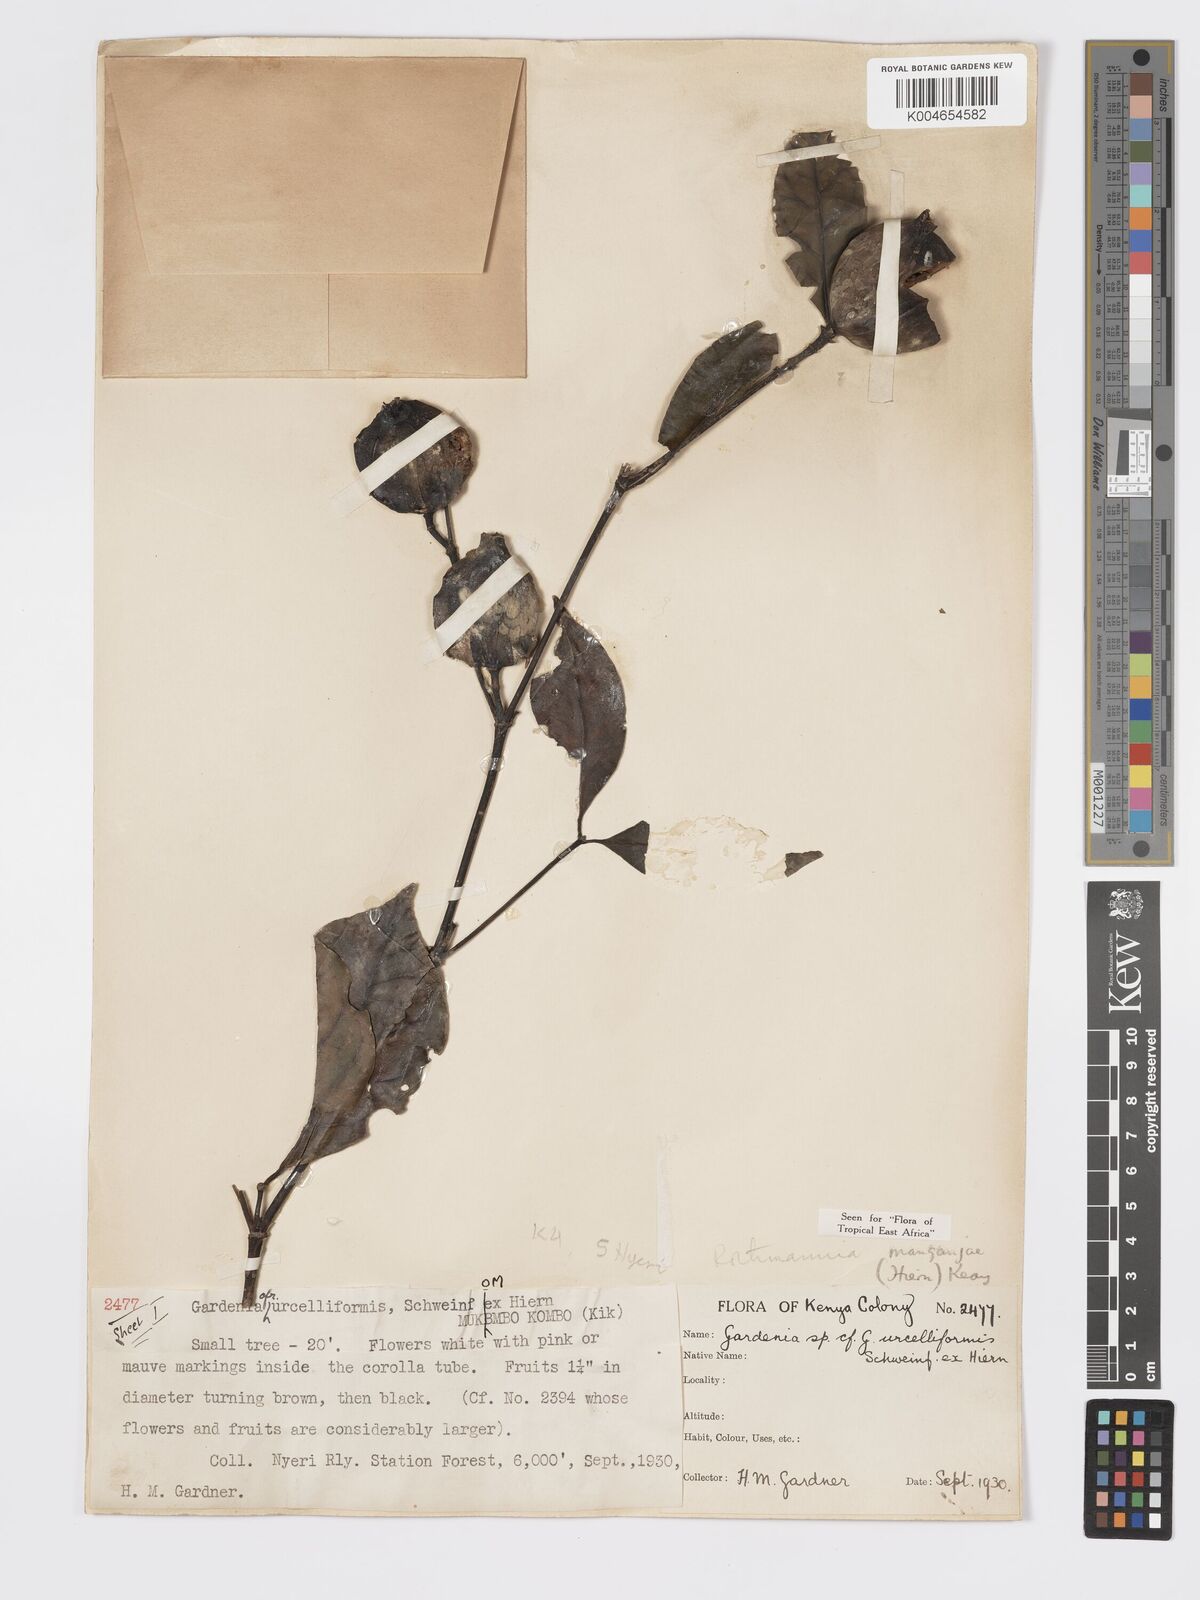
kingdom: Plantae
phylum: Tracheophyta
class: Magnoliopsida
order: Gentianales
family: Rubiaceae
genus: Rothmannia
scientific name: Rothmannia manganjae
